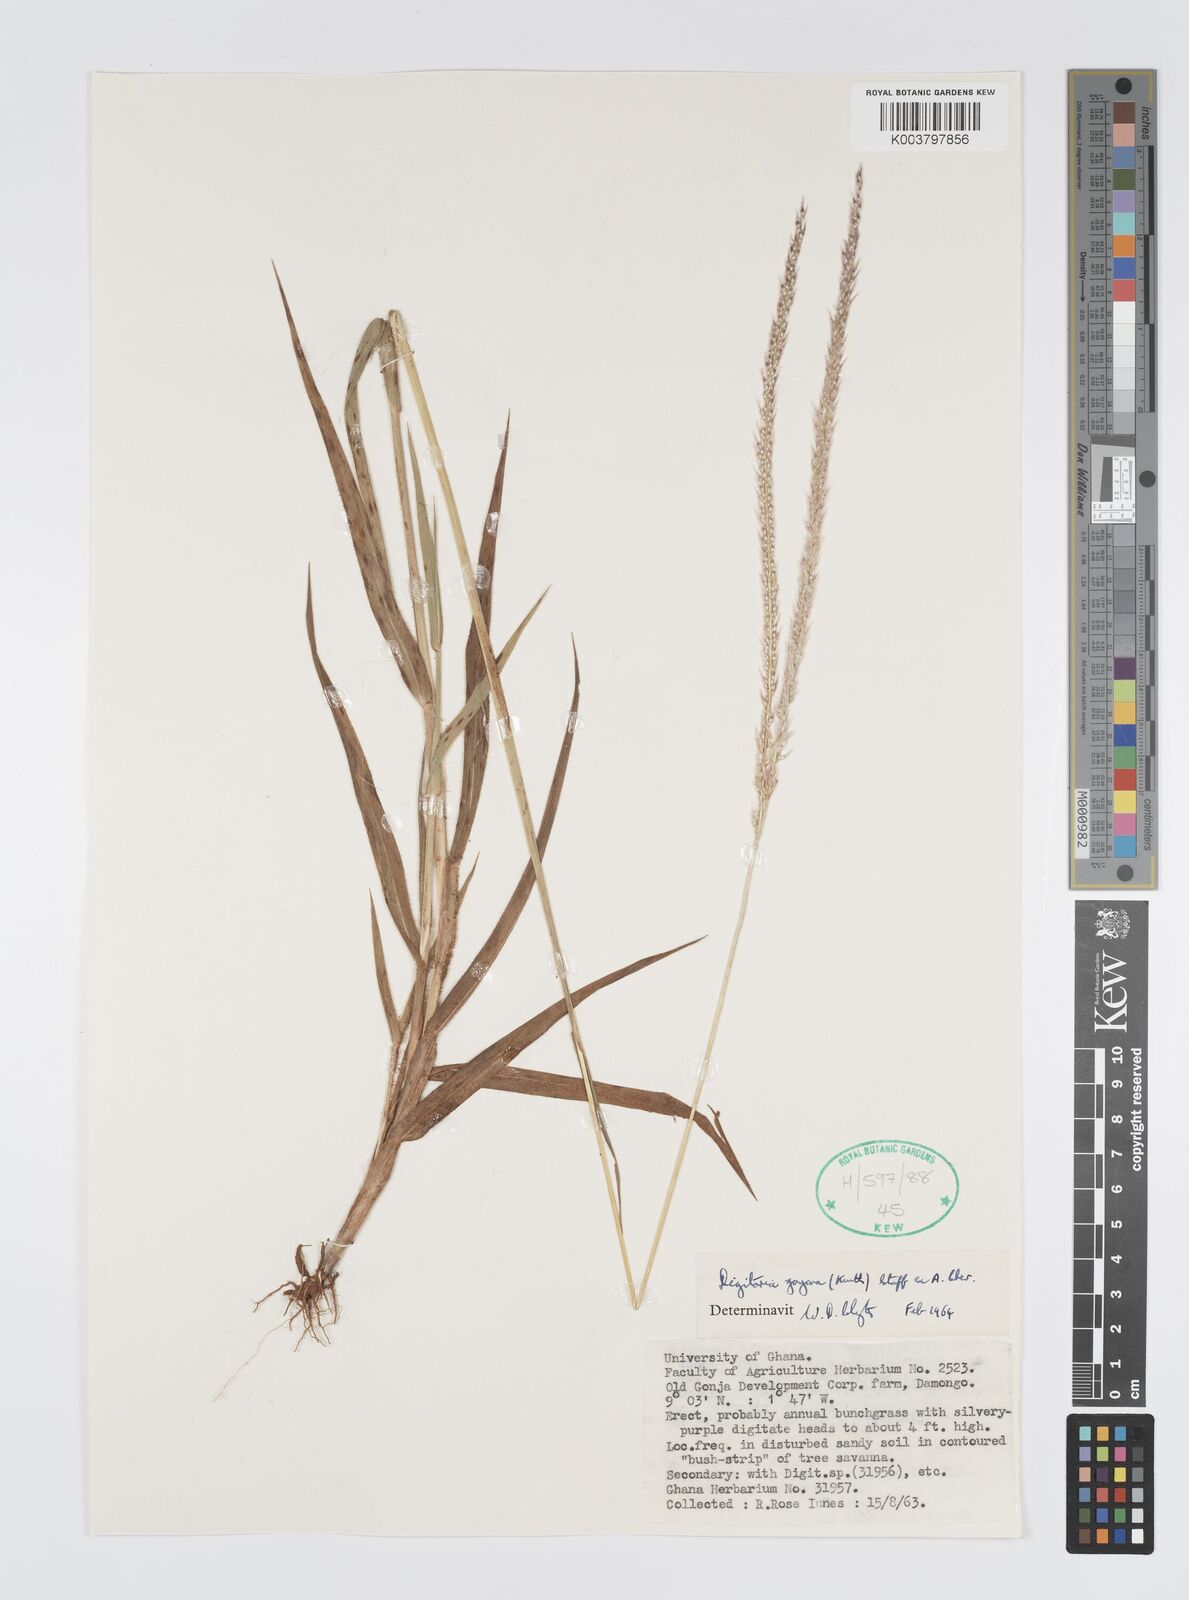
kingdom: Plantae
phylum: Tracheophyta
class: Liliopsida
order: Poales
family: Poaceae
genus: Digitaria
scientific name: Digitaria gayana
